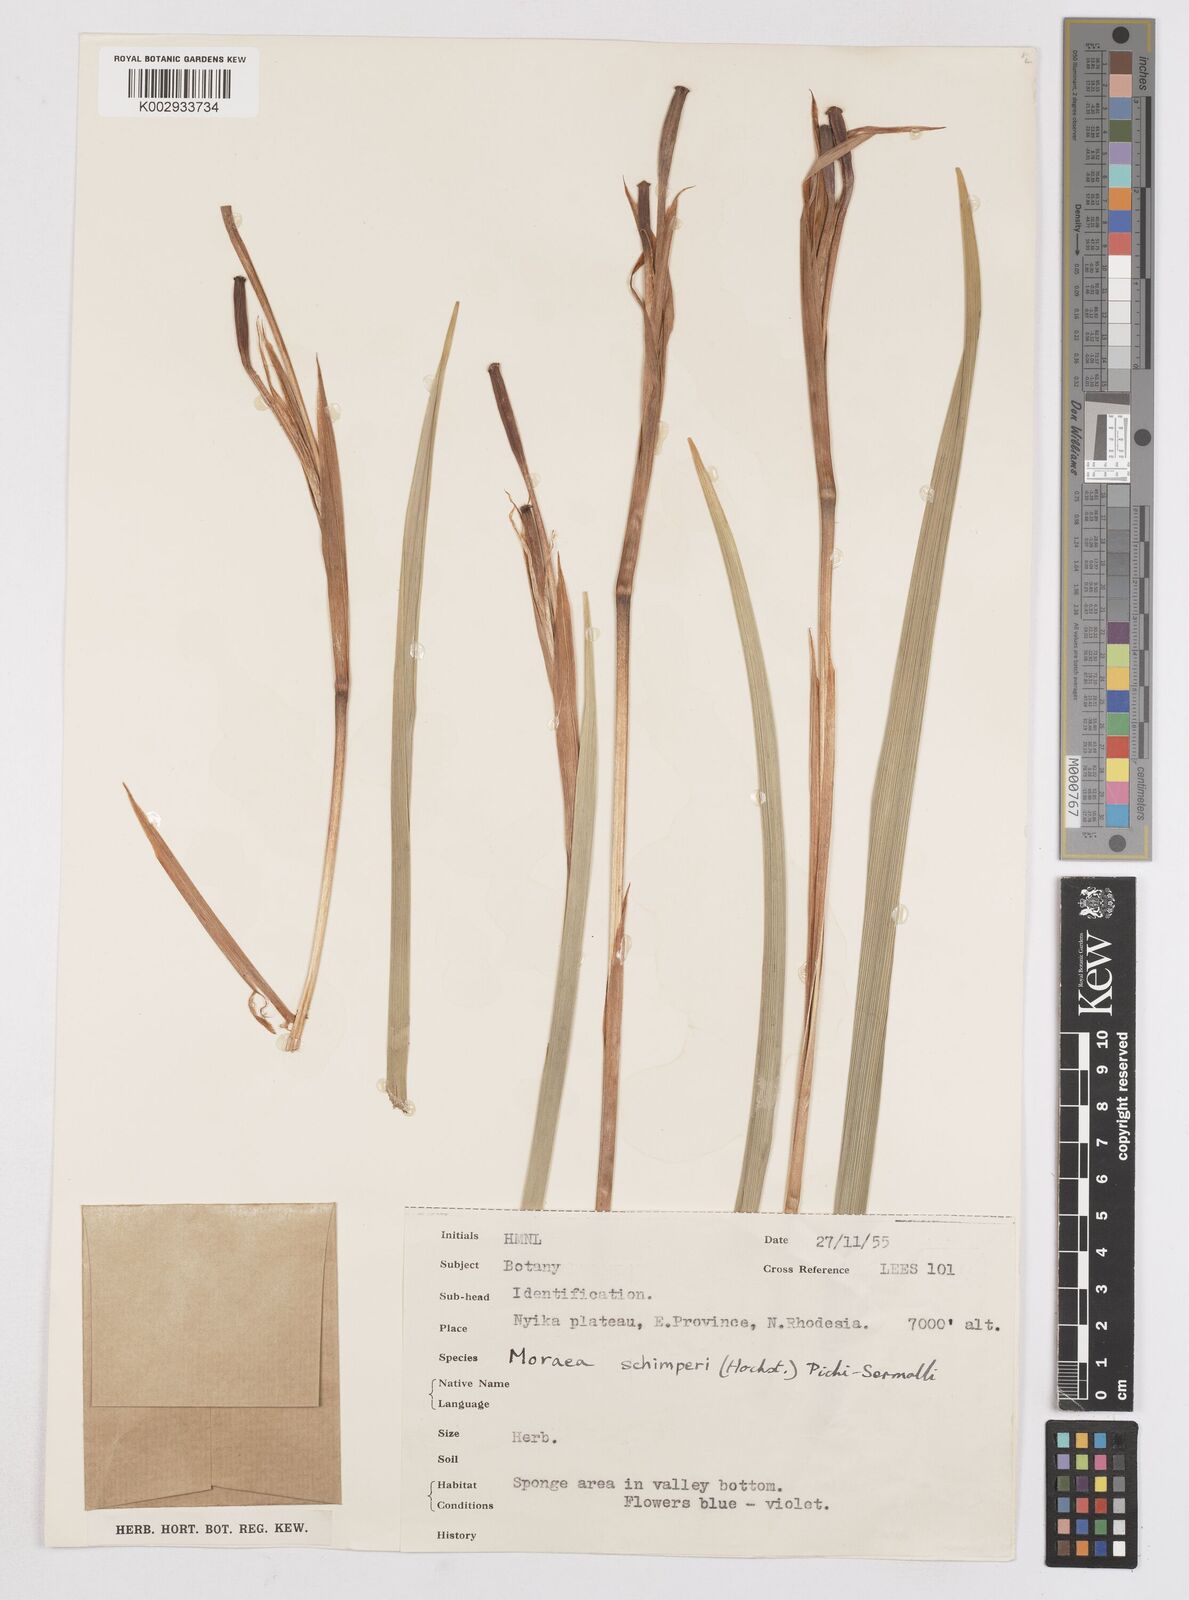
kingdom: Plantae
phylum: Tracheophyta
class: Liliopsida
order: Asparagales
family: Iridaceae
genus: Moraea
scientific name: Moraea schimperi
